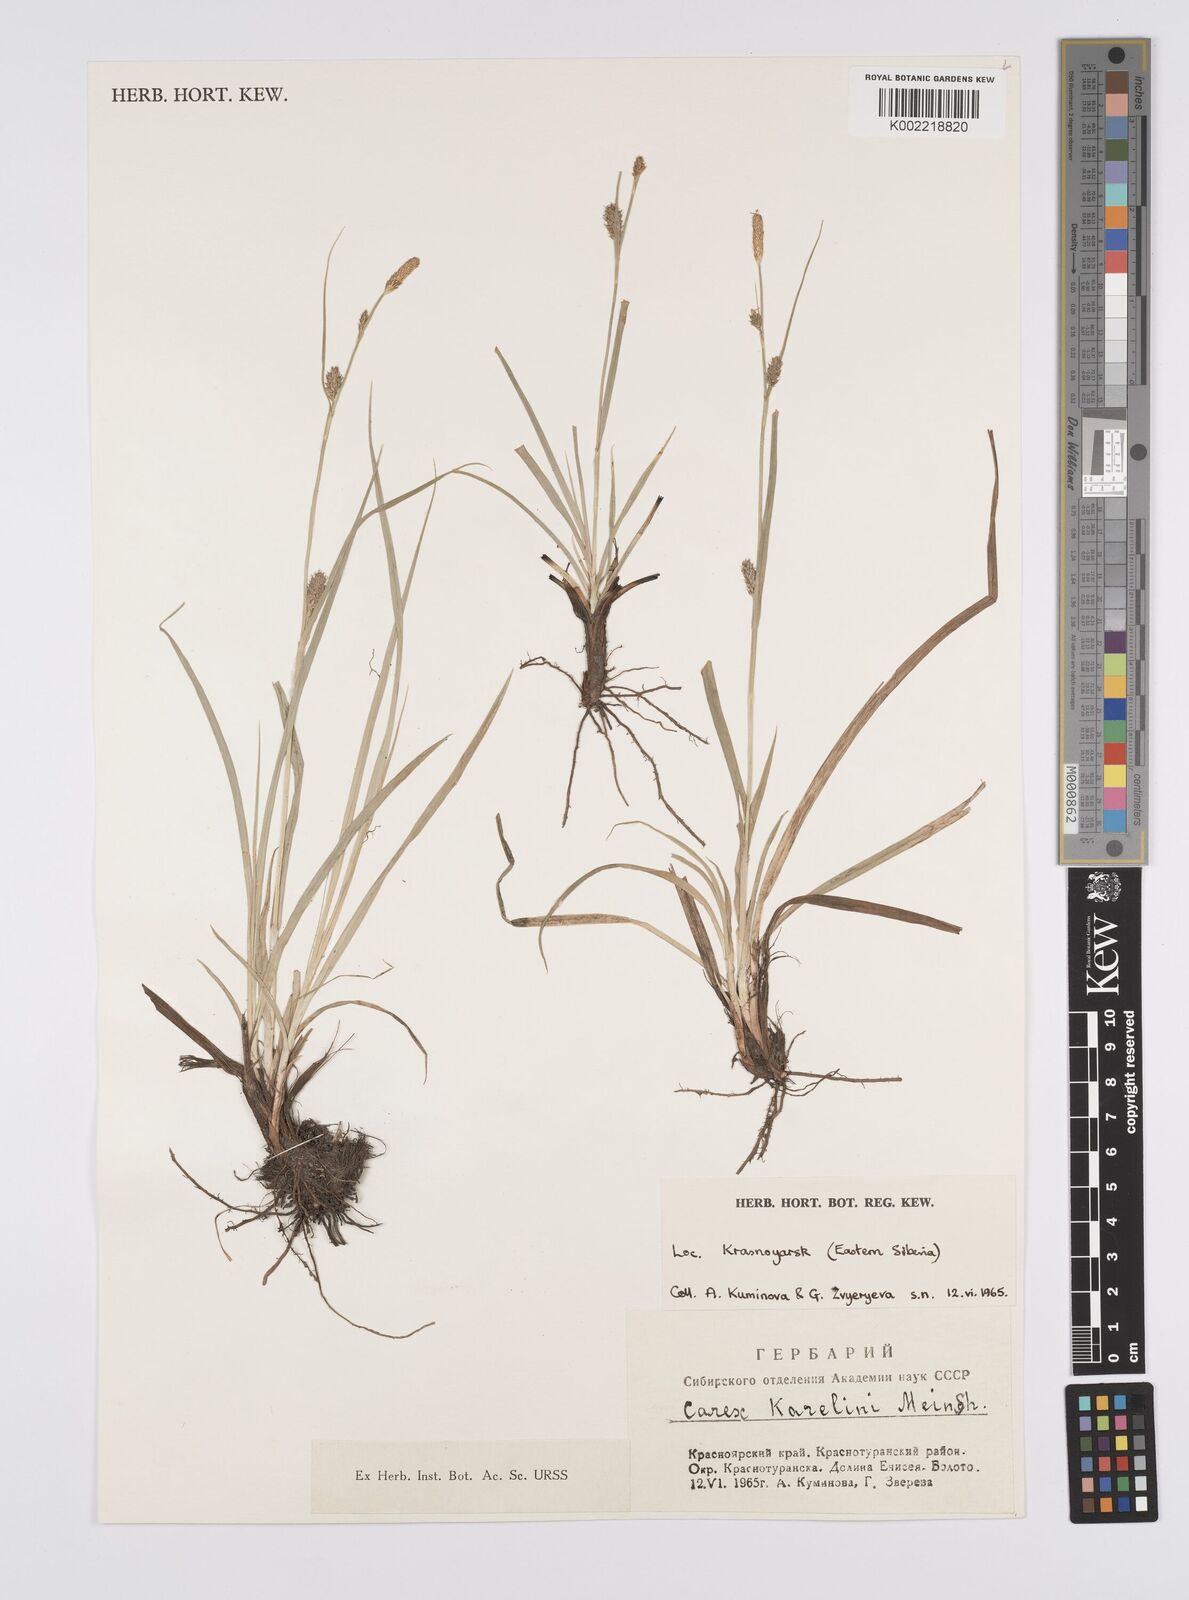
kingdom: Plantae
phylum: Tracheophyta
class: Liliopsida
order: Poales
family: Cyperaceae
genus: Carex
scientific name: Carex diluta
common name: Sedge
